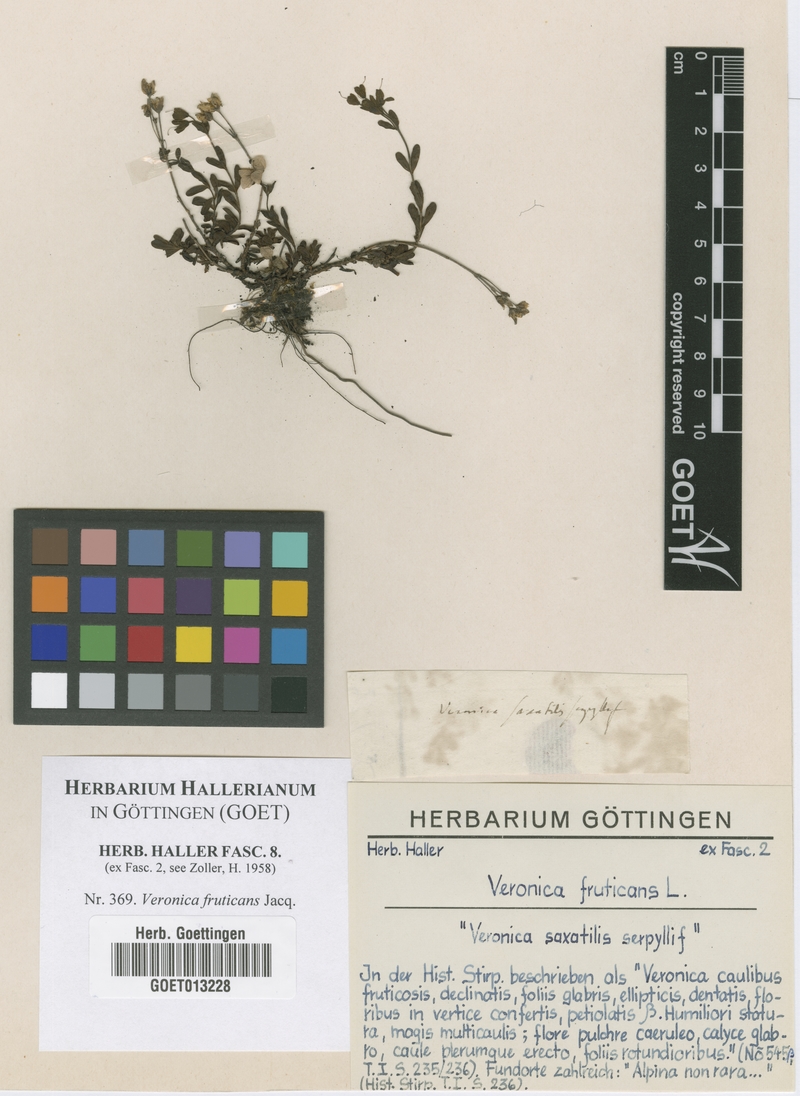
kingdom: Plantae
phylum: Tracheophyta
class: Magnoliopsida
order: Lamiales
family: Plantaginaceae
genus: Veronica
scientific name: Veronica fruticans
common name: Rock speedwell
